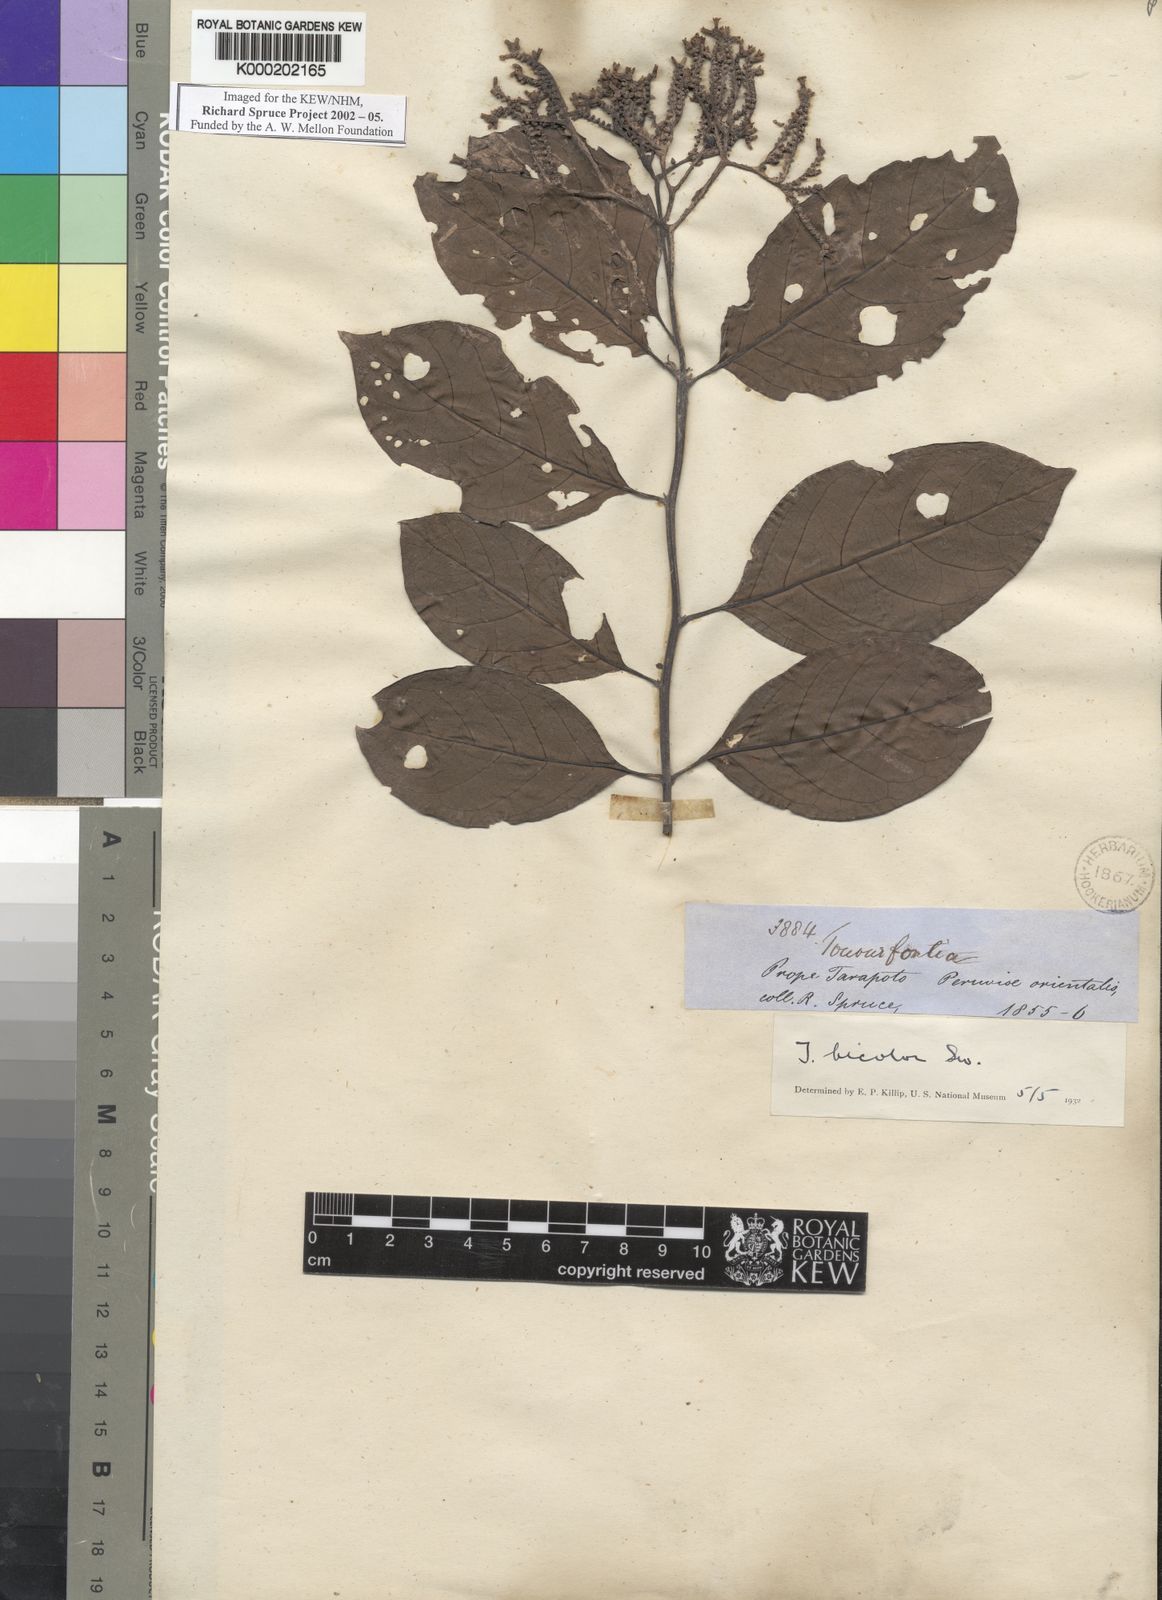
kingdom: Plantae
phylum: Tracheophyta
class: Magnoliopsida
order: Boraginales
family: Heliotropiaceae
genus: Heliotropium
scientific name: Heliotropium verdcourtii
